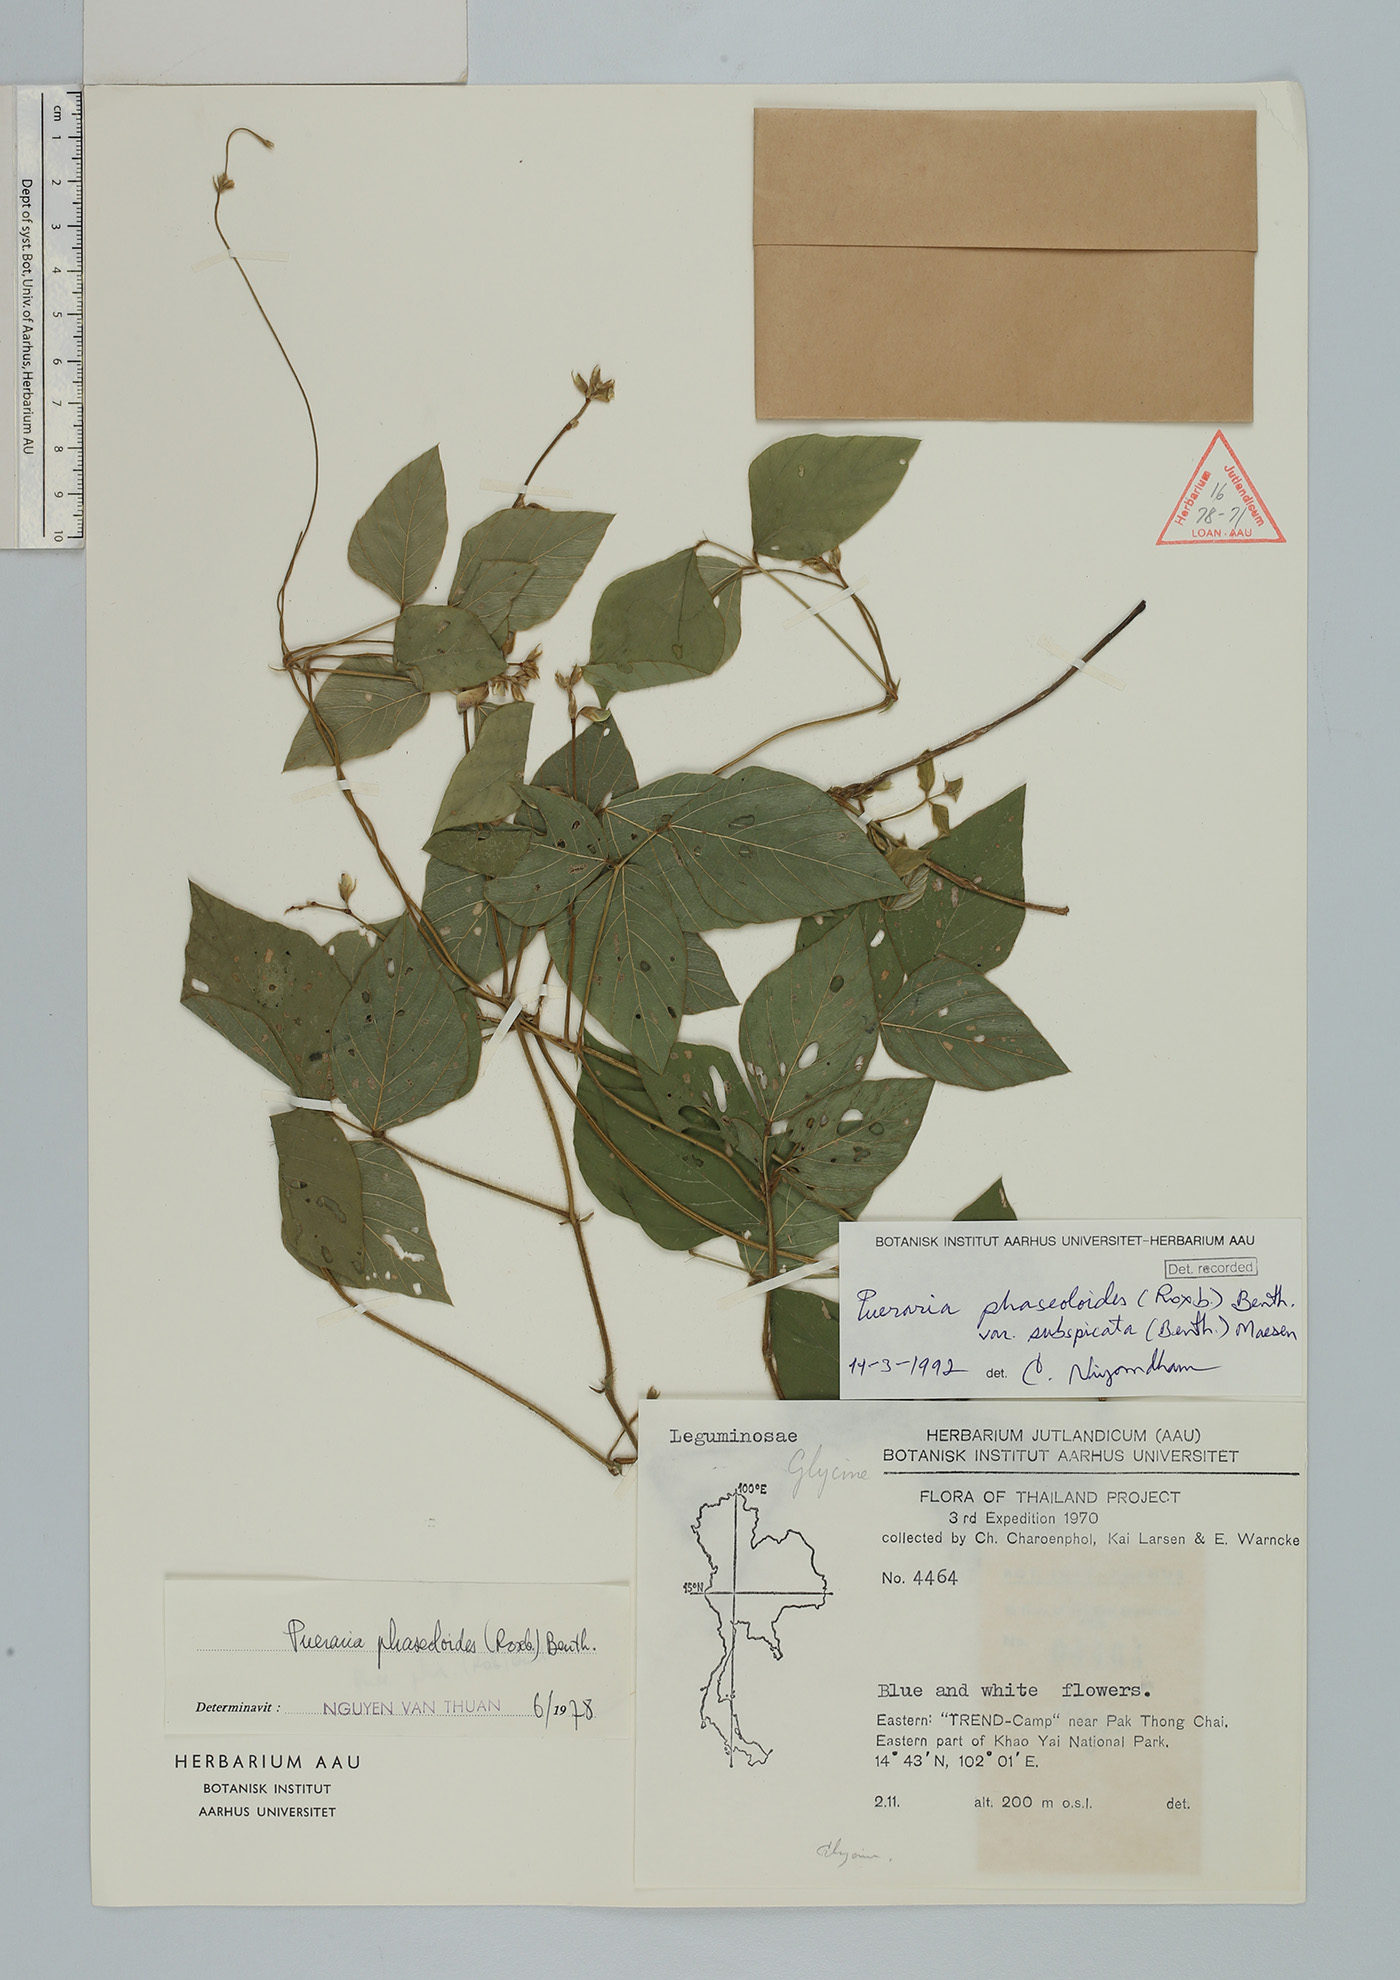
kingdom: Plantae
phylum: Tracheophyta
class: Magnoliopsida
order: Fabales
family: Fabaceae
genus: Neustanthus
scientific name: Neustanthus phaseoloides
